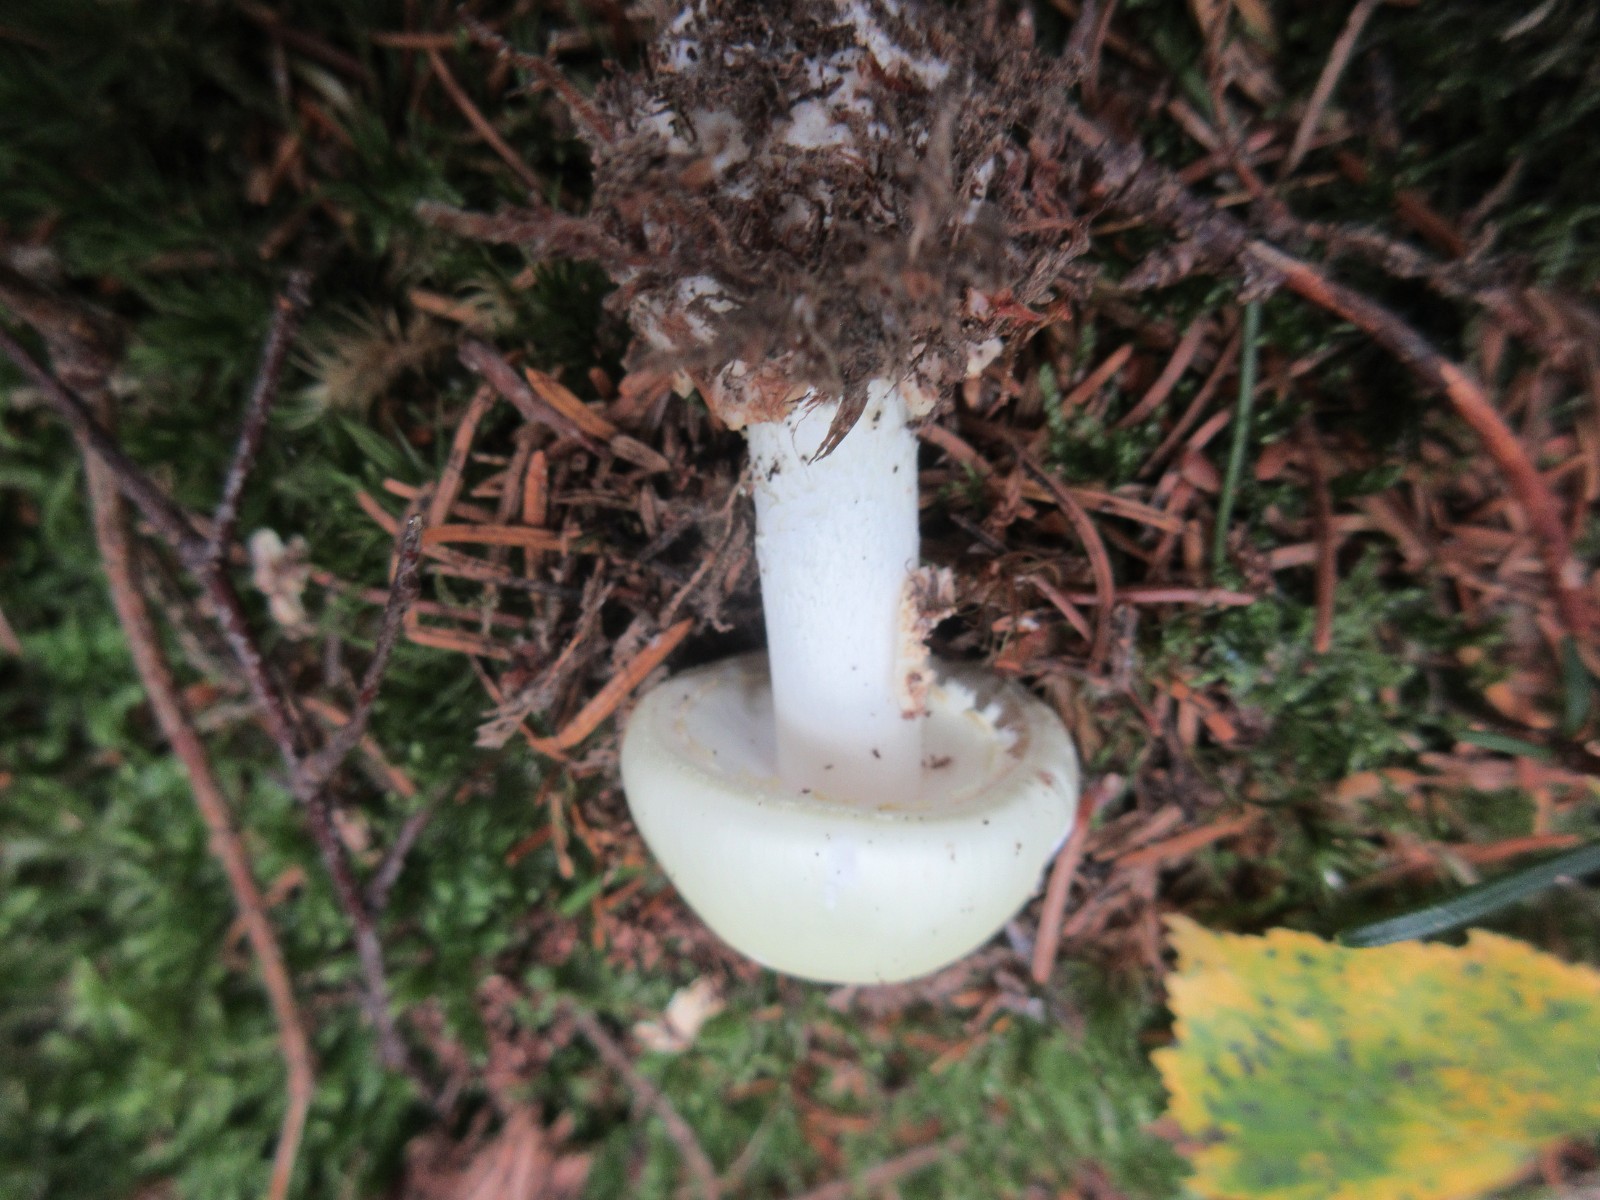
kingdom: Fungi
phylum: Basidiomycota
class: Agaricomycetes
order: Agaricales
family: Amanitaceae
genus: Amanita
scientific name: Amanita citrina
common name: False death-cap
